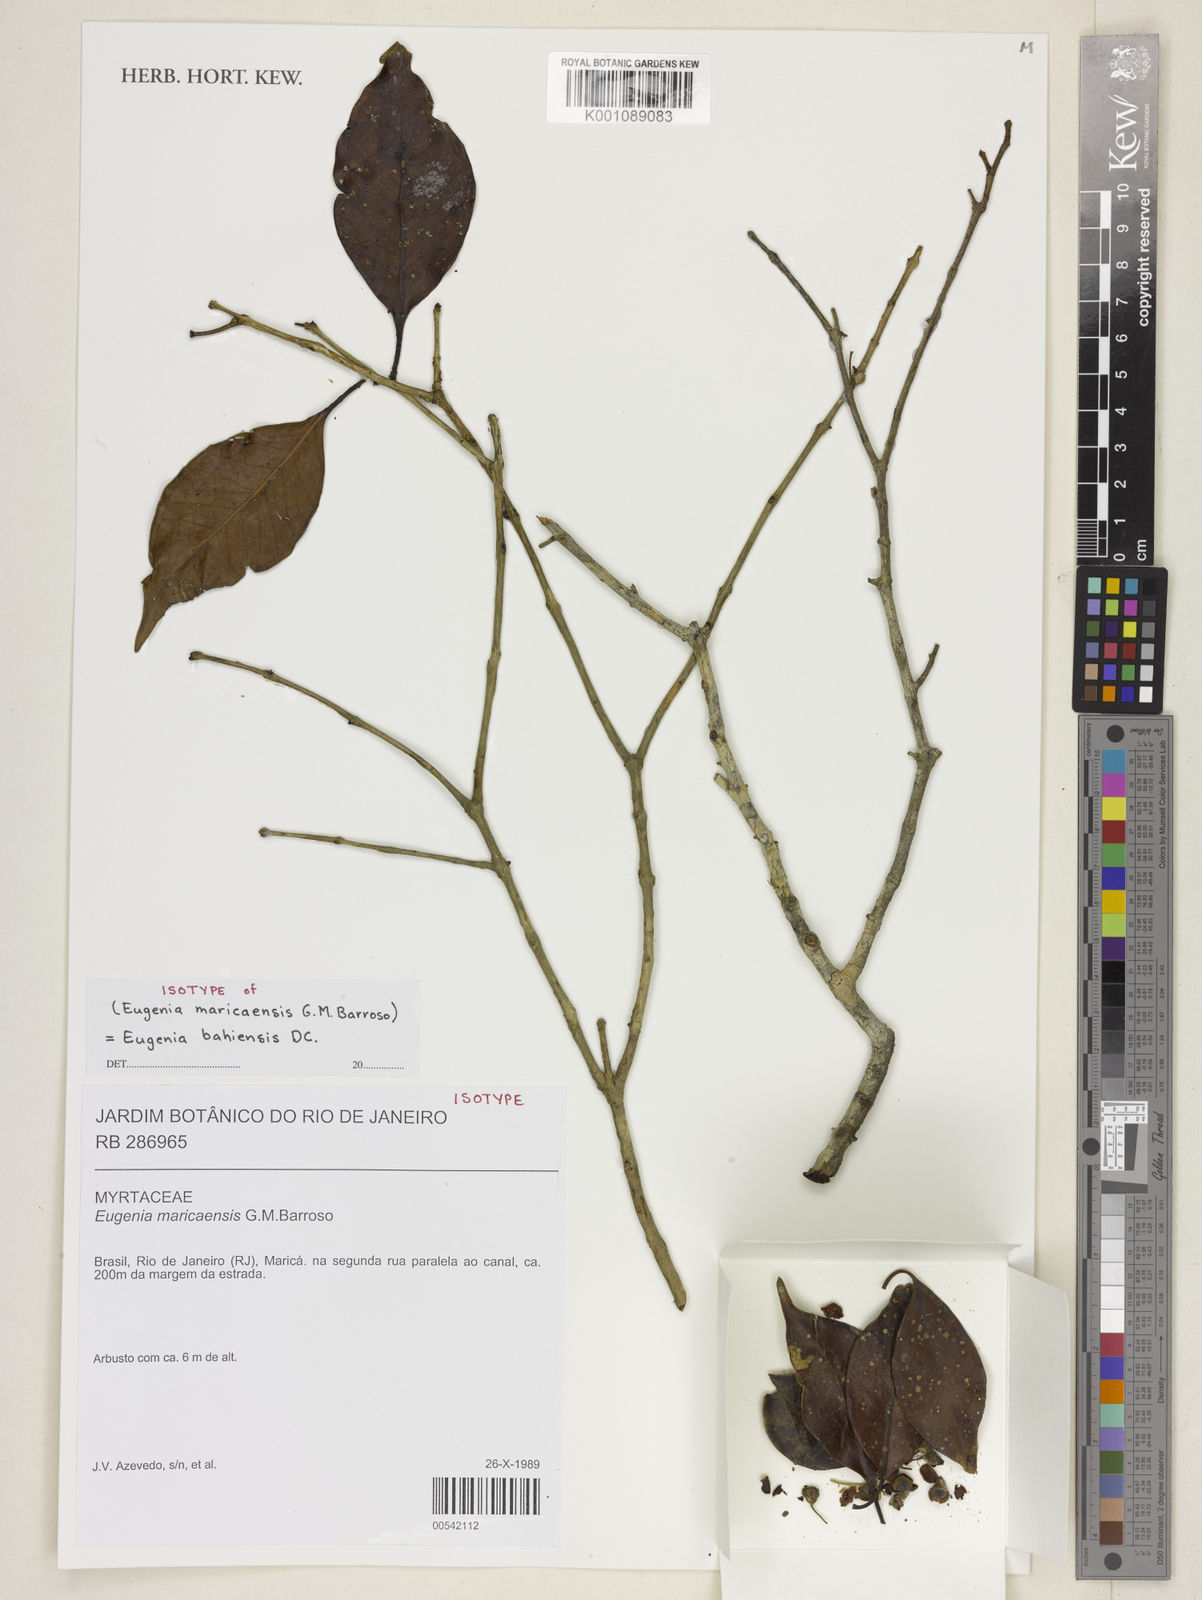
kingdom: Plantae
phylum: Tracheophyta
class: Magnoliopsida
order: Myrtales
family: Myrtaceae
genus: Eugenia
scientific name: Eugenia bahiensis
